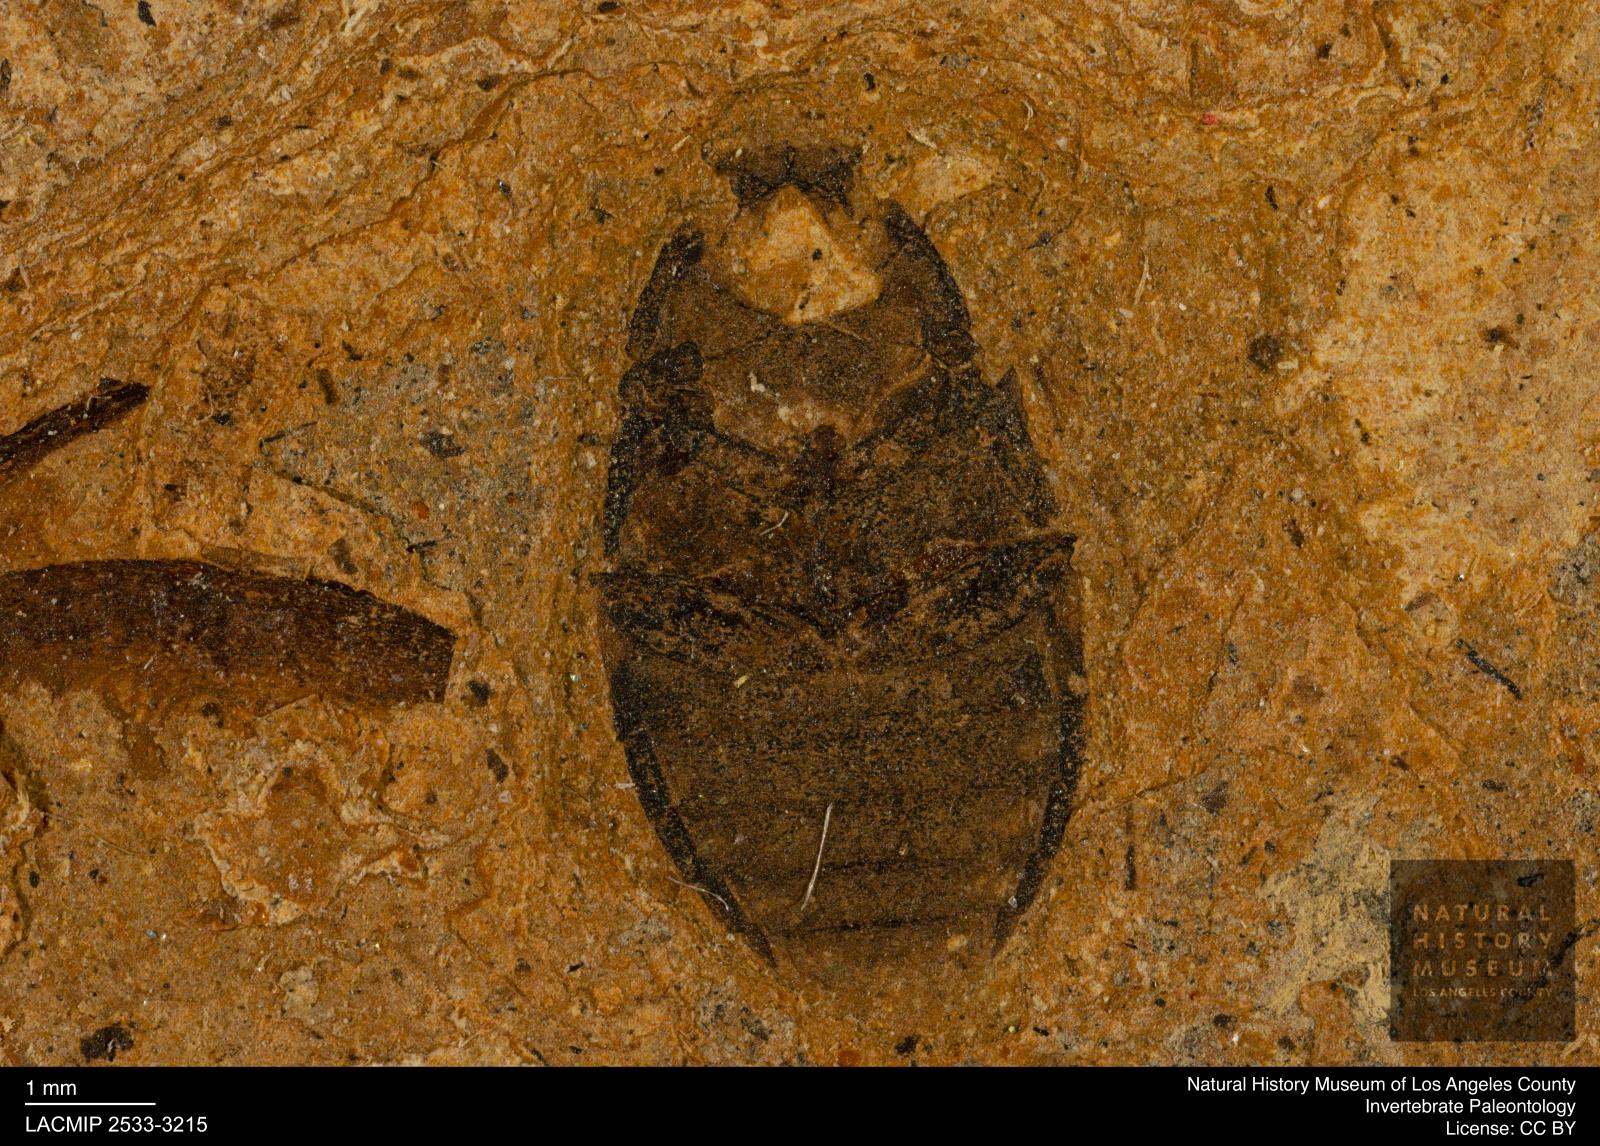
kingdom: Animalia
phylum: Arthropoda
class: Insecta
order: Coleoptera
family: Hydrophilidae
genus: Berosus
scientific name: Berosus morticinus
